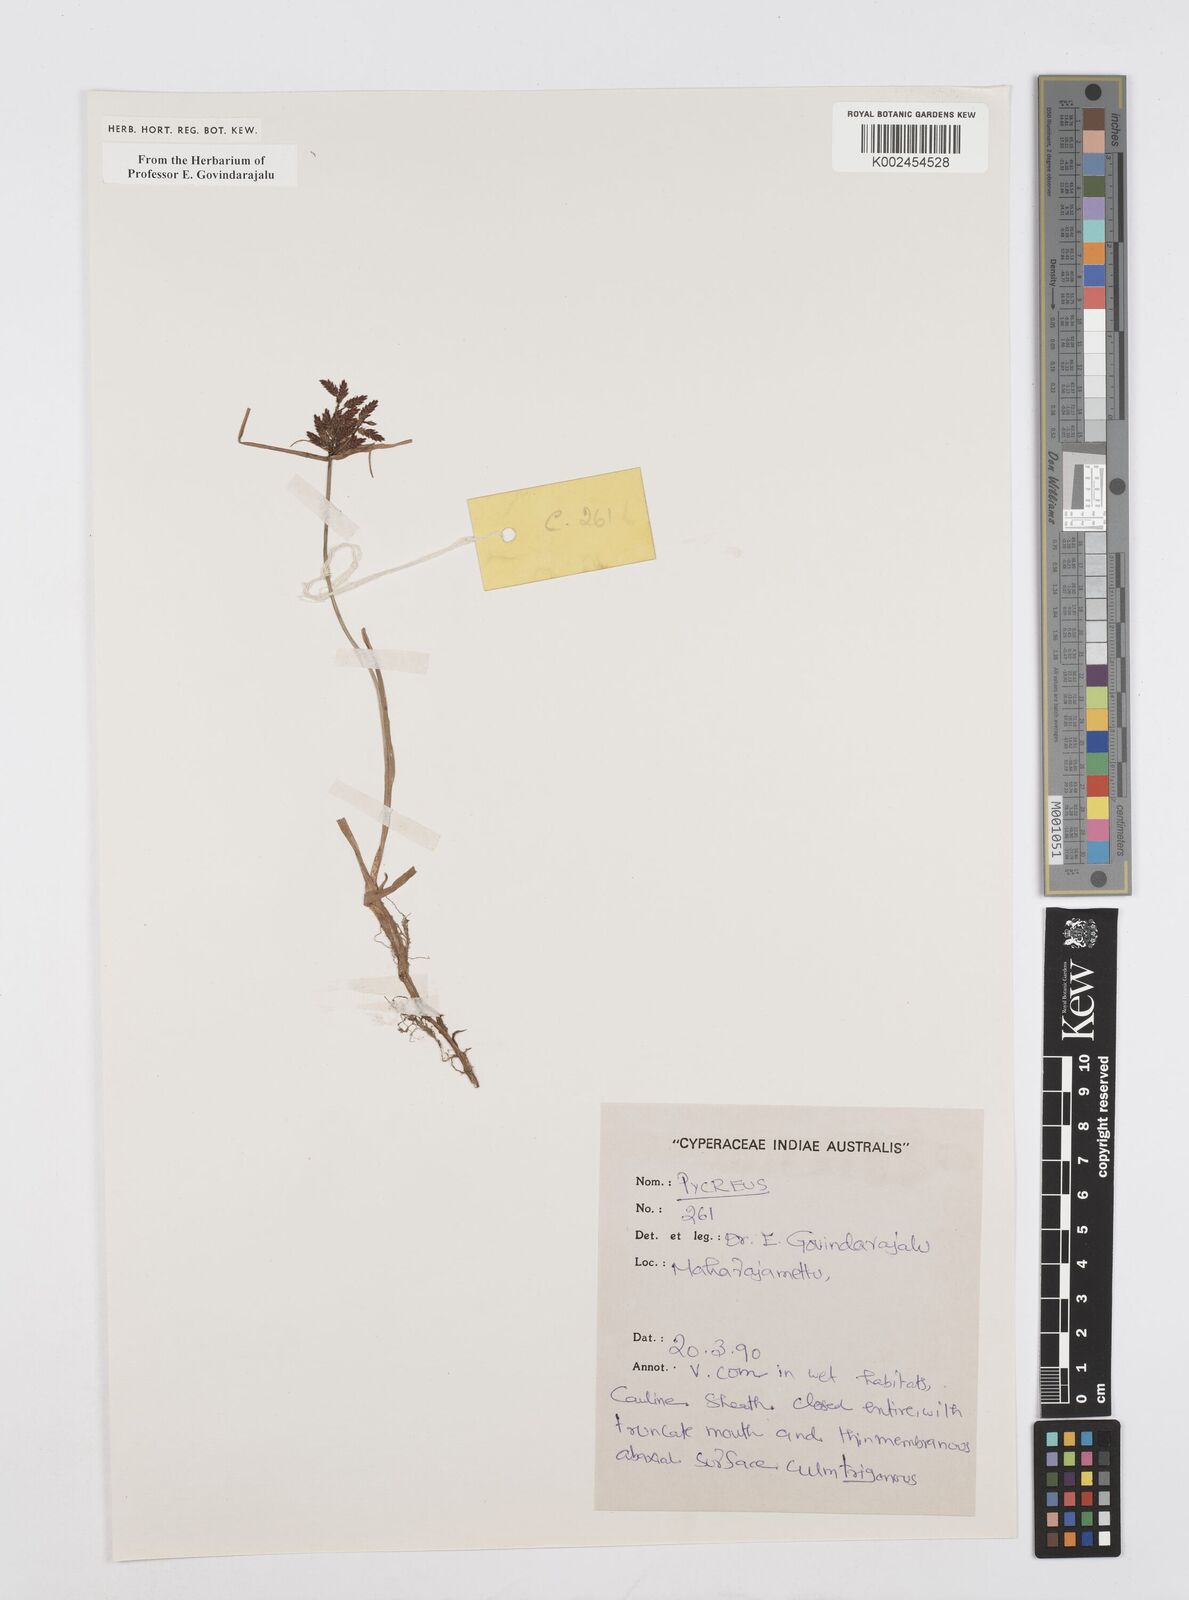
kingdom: Plantae
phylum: Tracheophyta
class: Liliopsida
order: Poales
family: Cyperaceae
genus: Cyperus
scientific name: Cyperus
